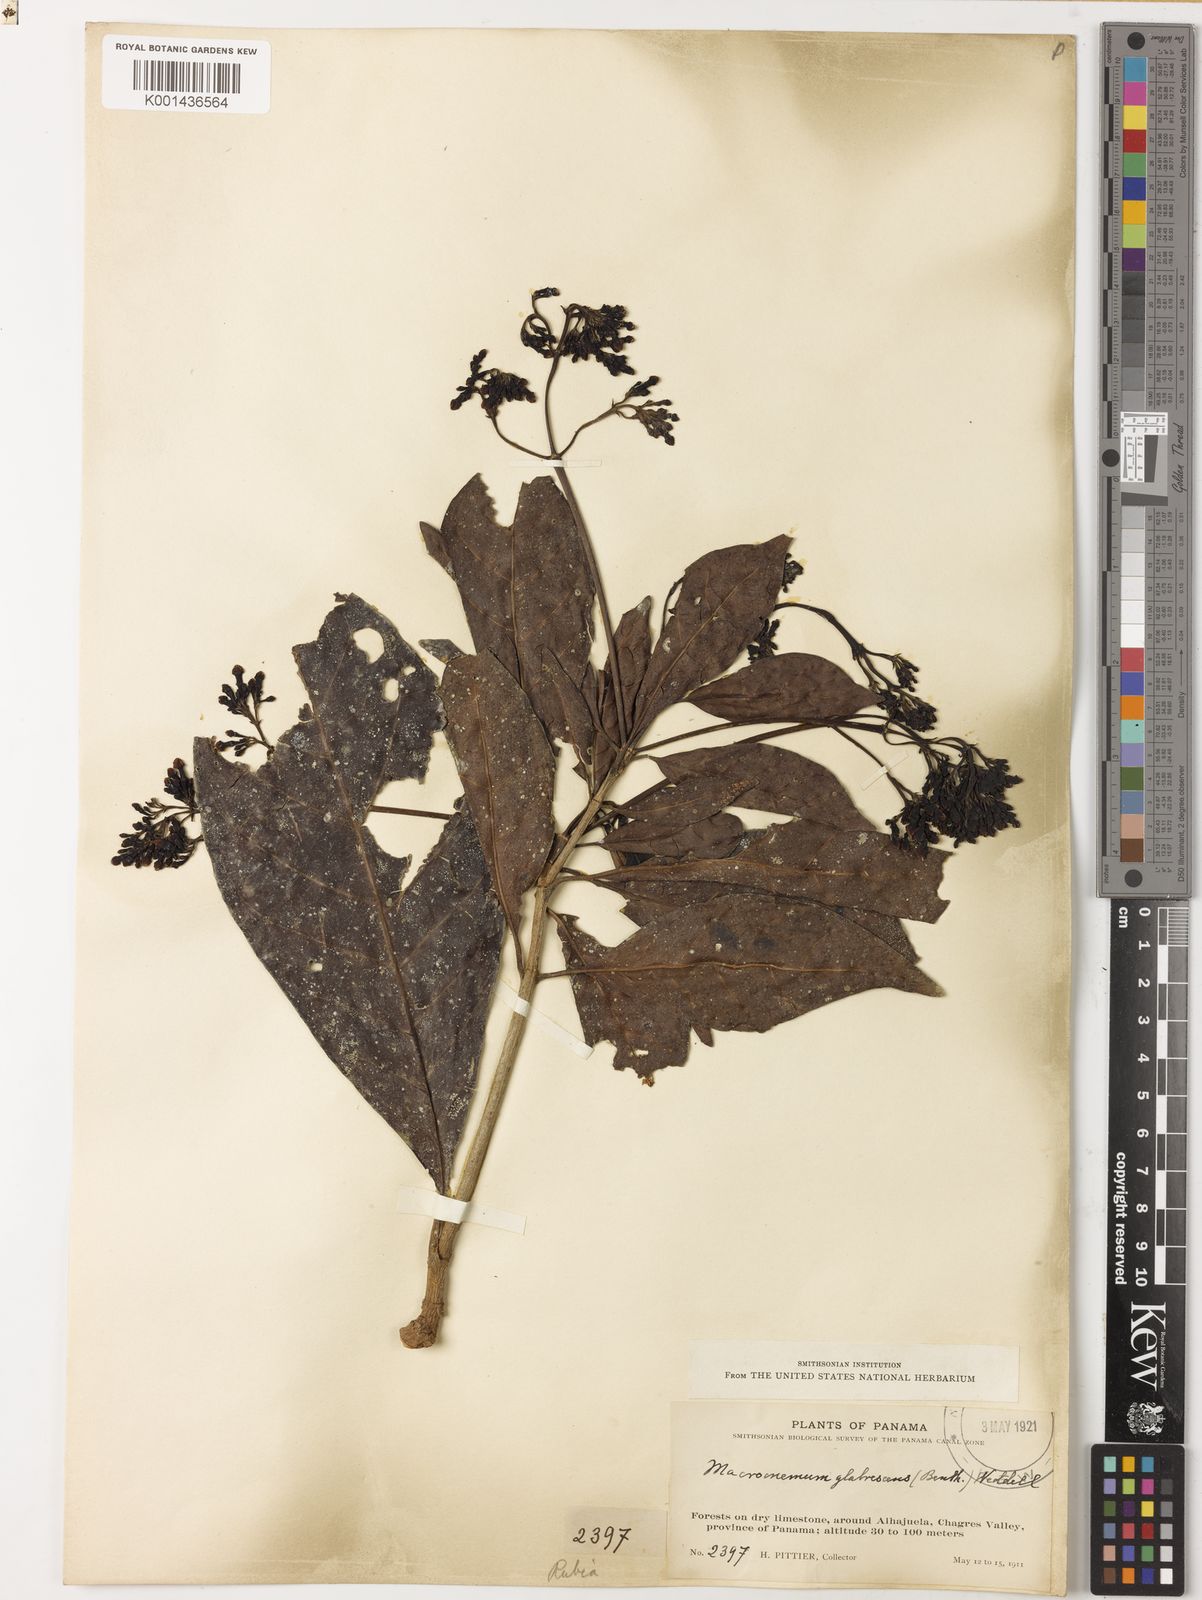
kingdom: Plantae
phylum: Tracheophyta
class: Magnoliopsida
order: Gentianales
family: Rubiaceae
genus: Macrocnemum
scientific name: Macrocnemum roseum
